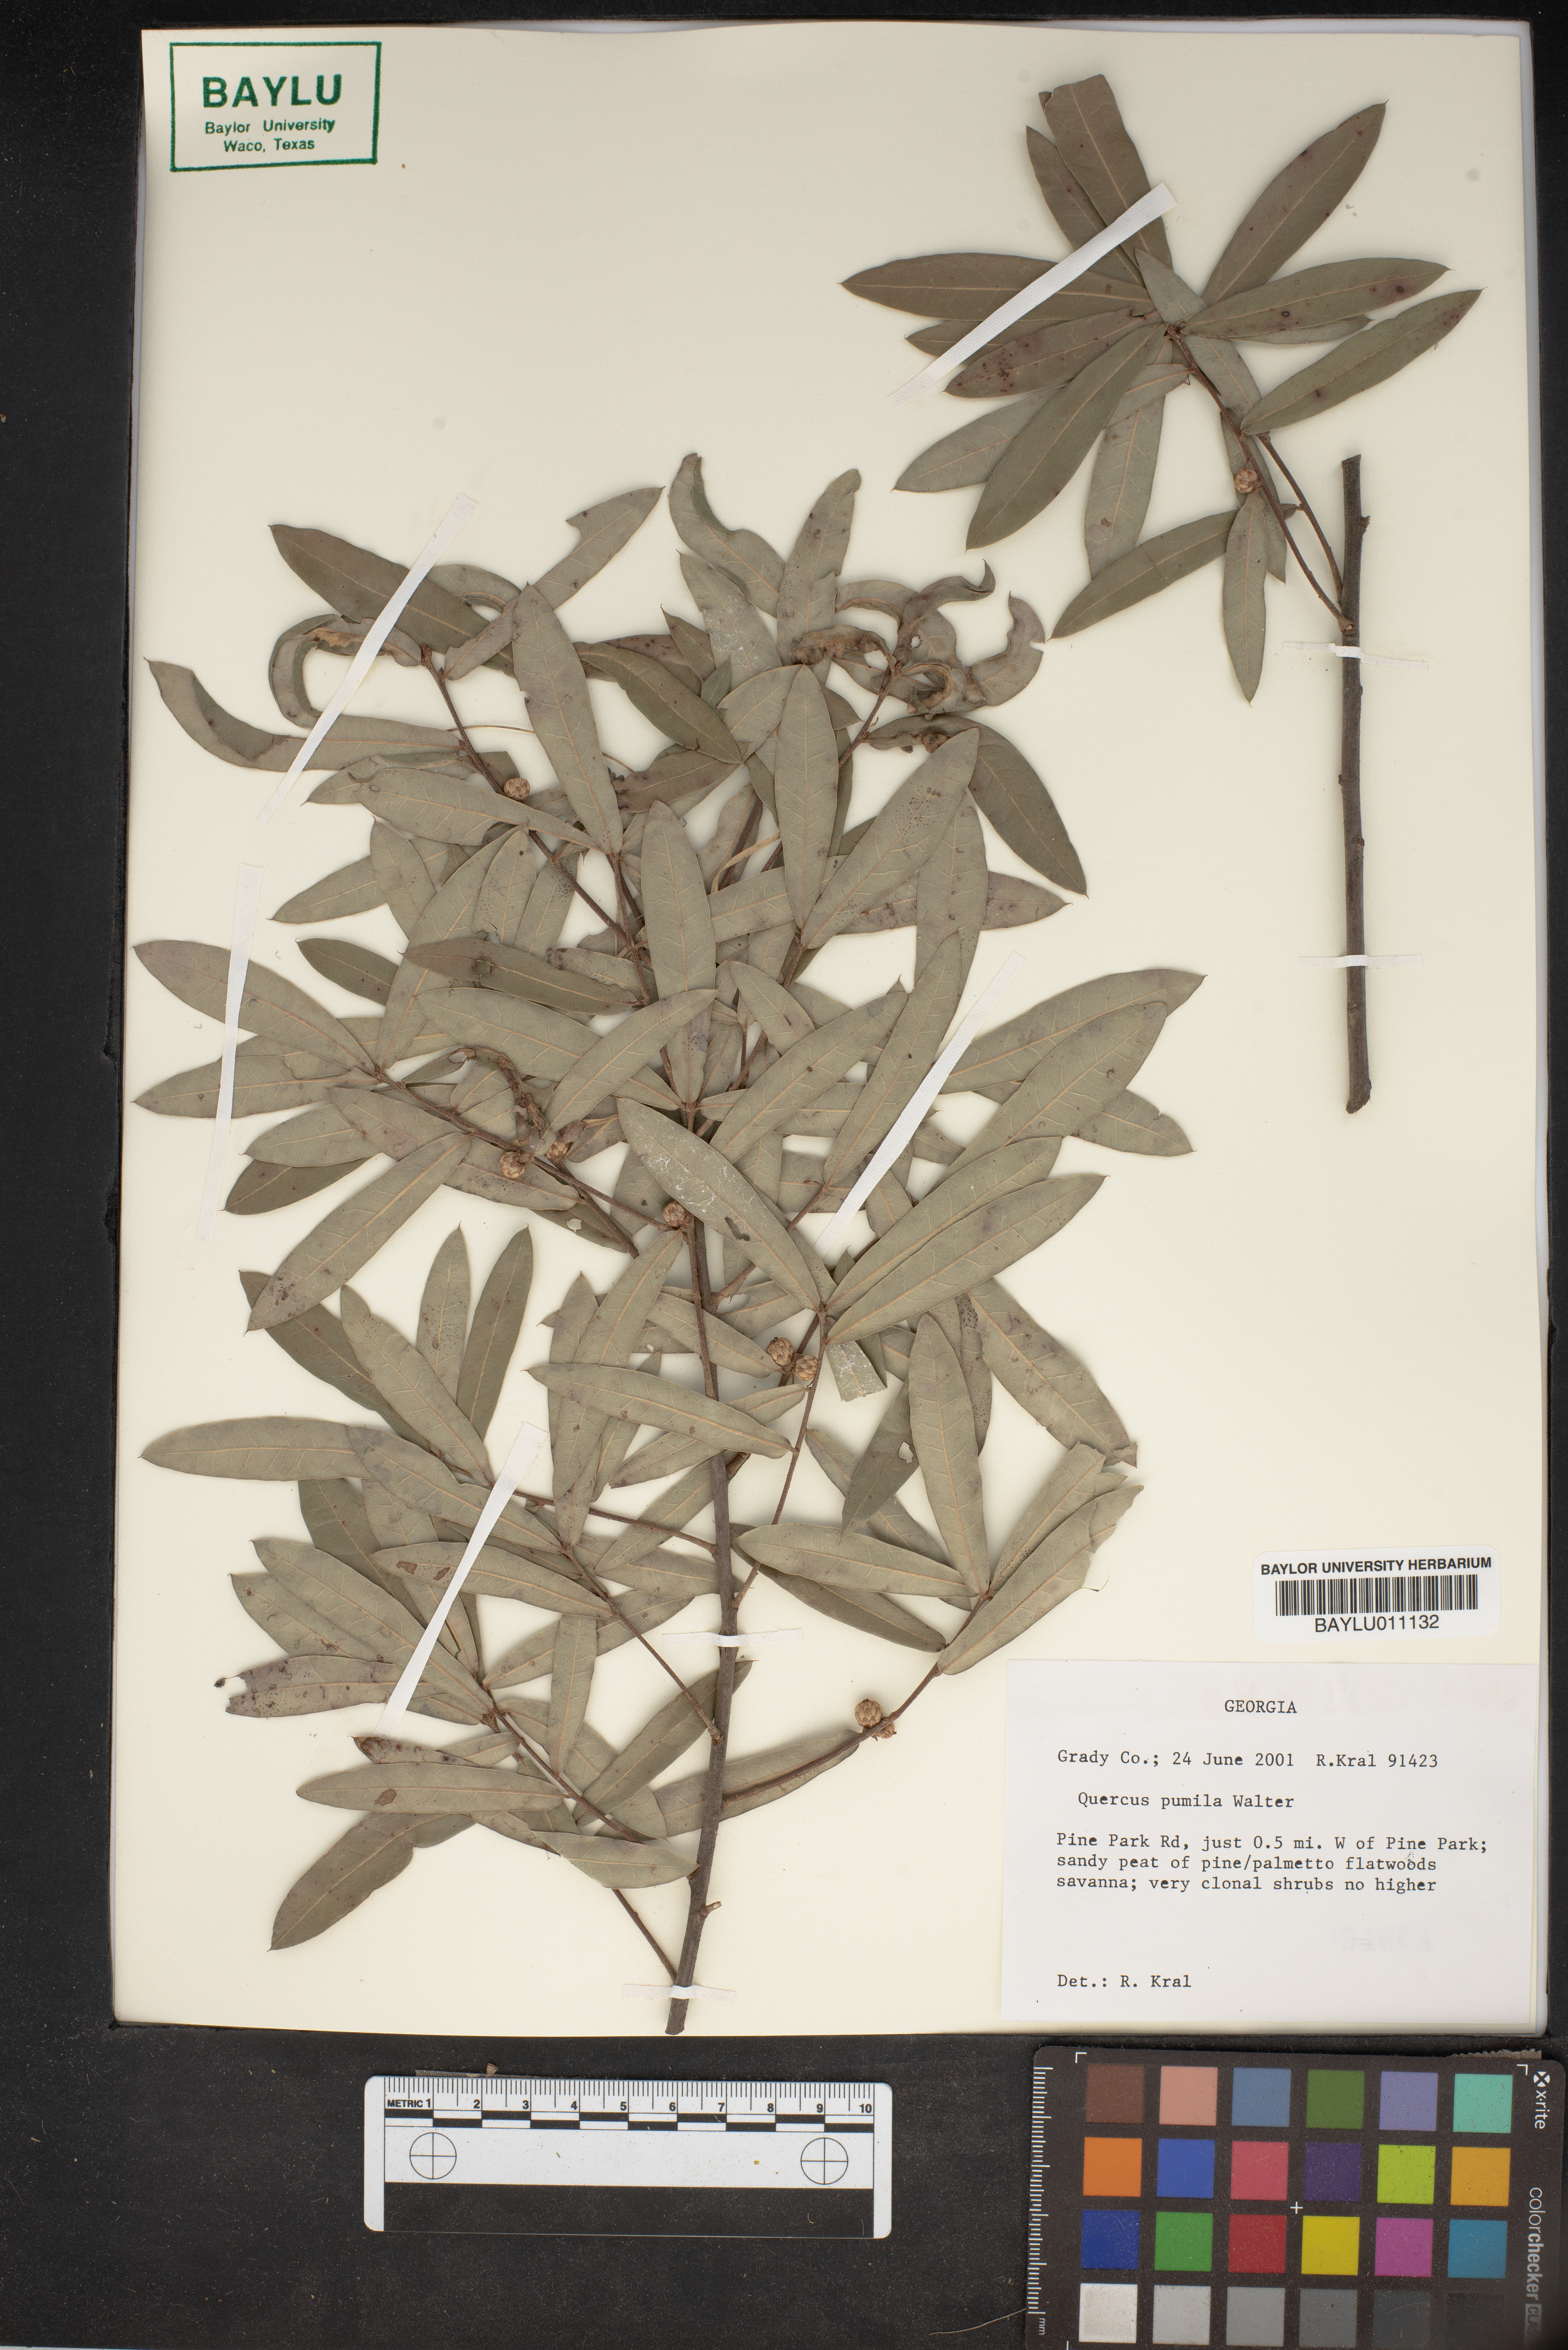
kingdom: Plantae
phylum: Tracheophyta
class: Magnoliopsida
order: Fagales
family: Fagaceae
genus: Quercus
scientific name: Quercus pumila
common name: Runner oak
